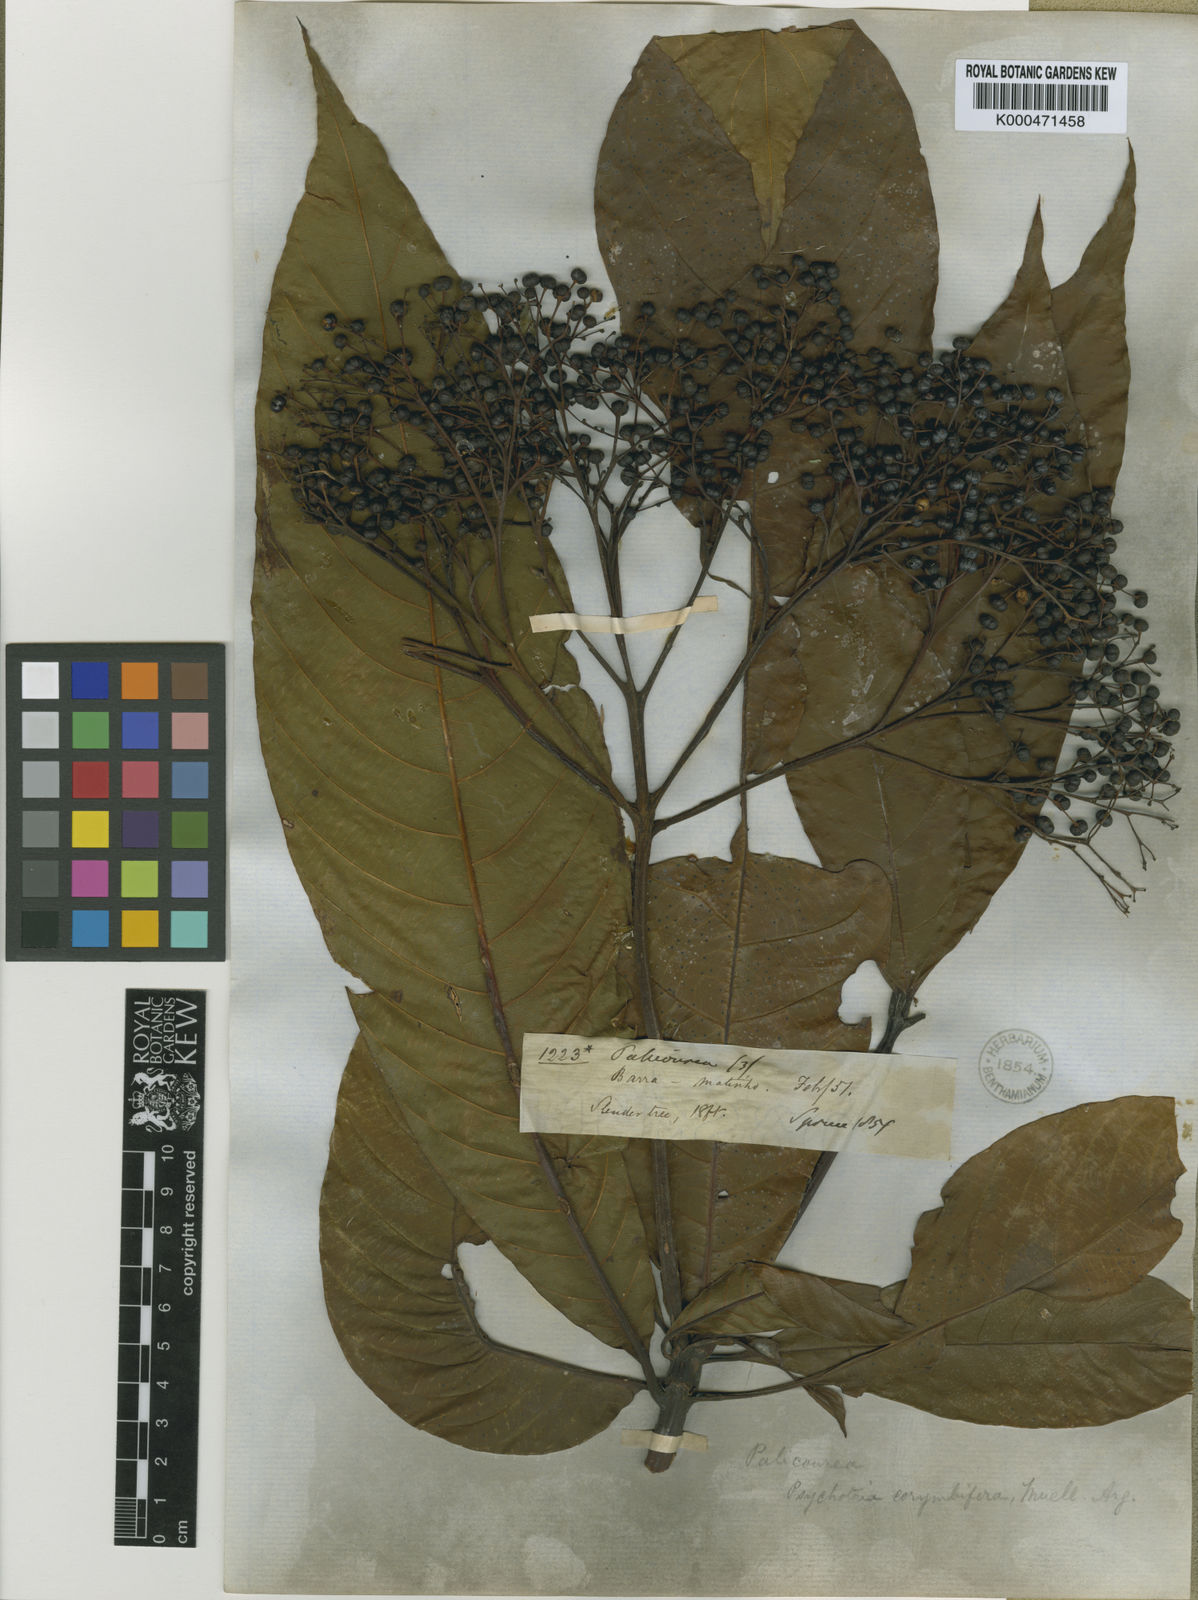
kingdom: Plantae
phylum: Tracheophyta
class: Magnoliopsida
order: Gentianales
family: Rubiaceae
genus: Palicourea
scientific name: Palicourea
